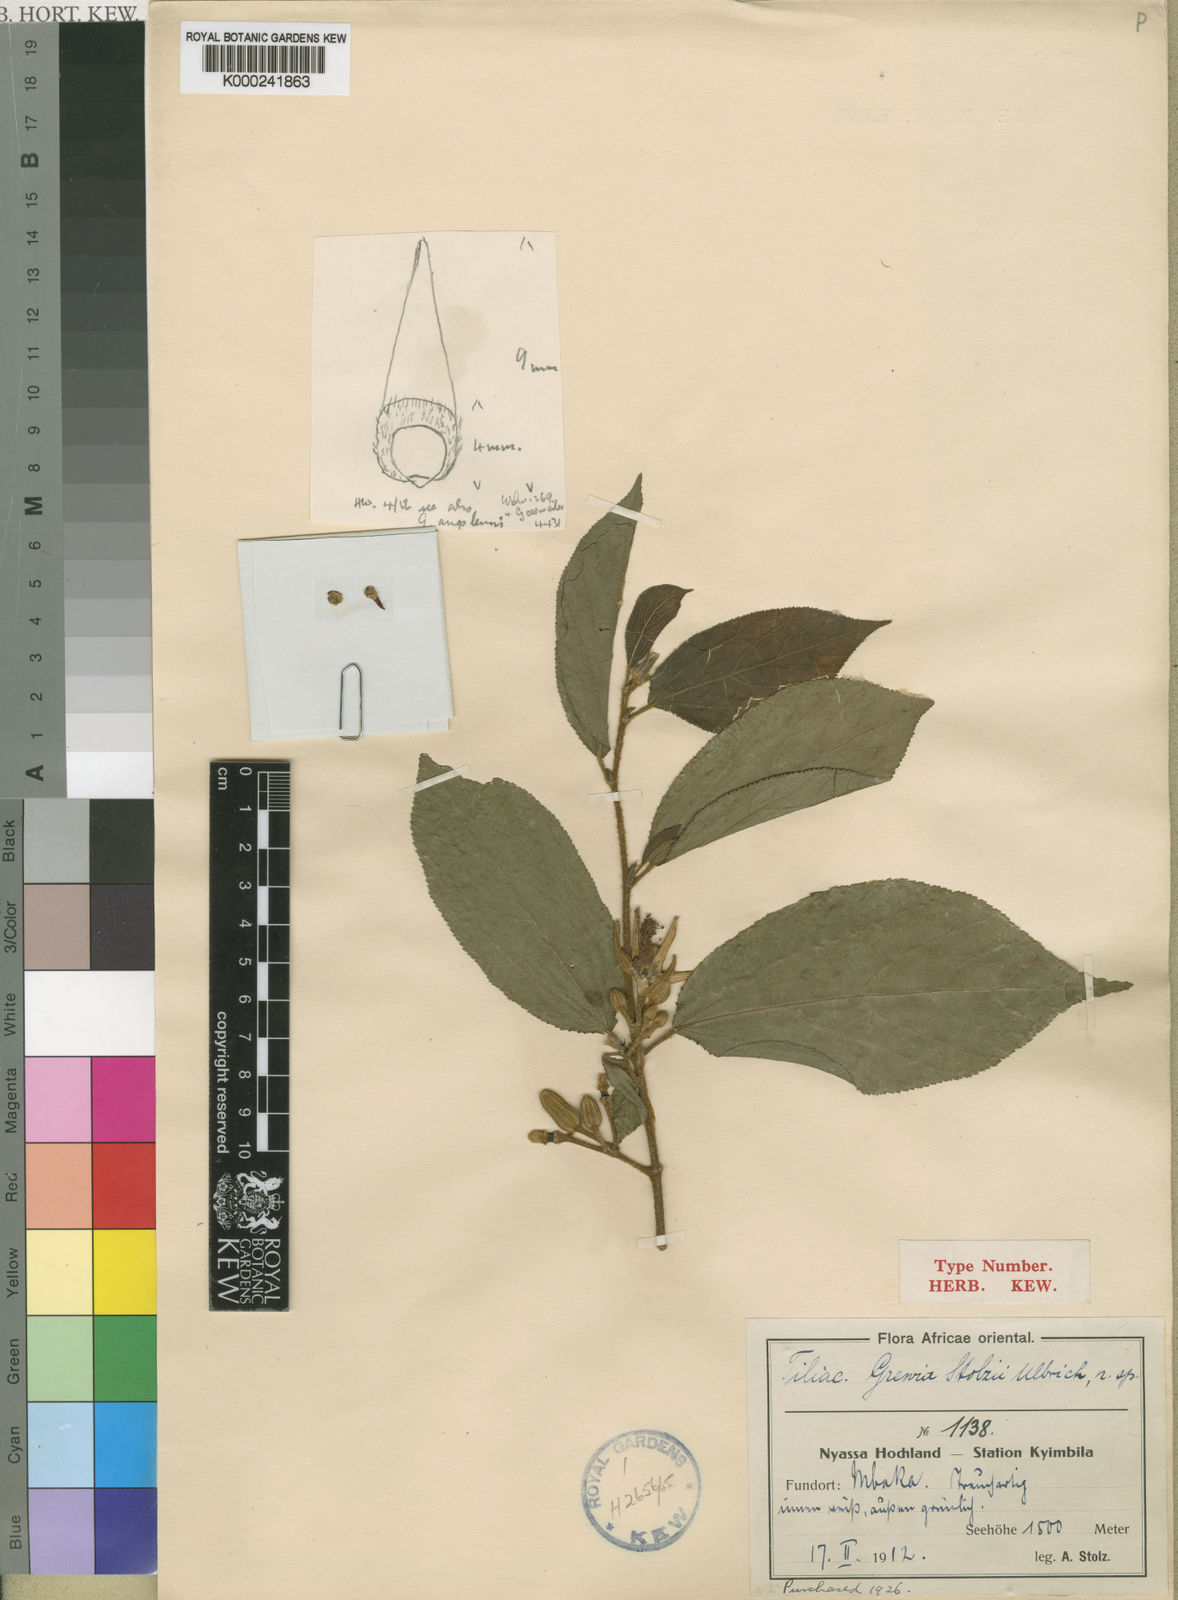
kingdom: Plantae
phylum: Tracheophyta
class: Magnoliopsida
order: Malvales
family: Malvaceae
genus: Grewia
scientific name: Grewia stolzii
